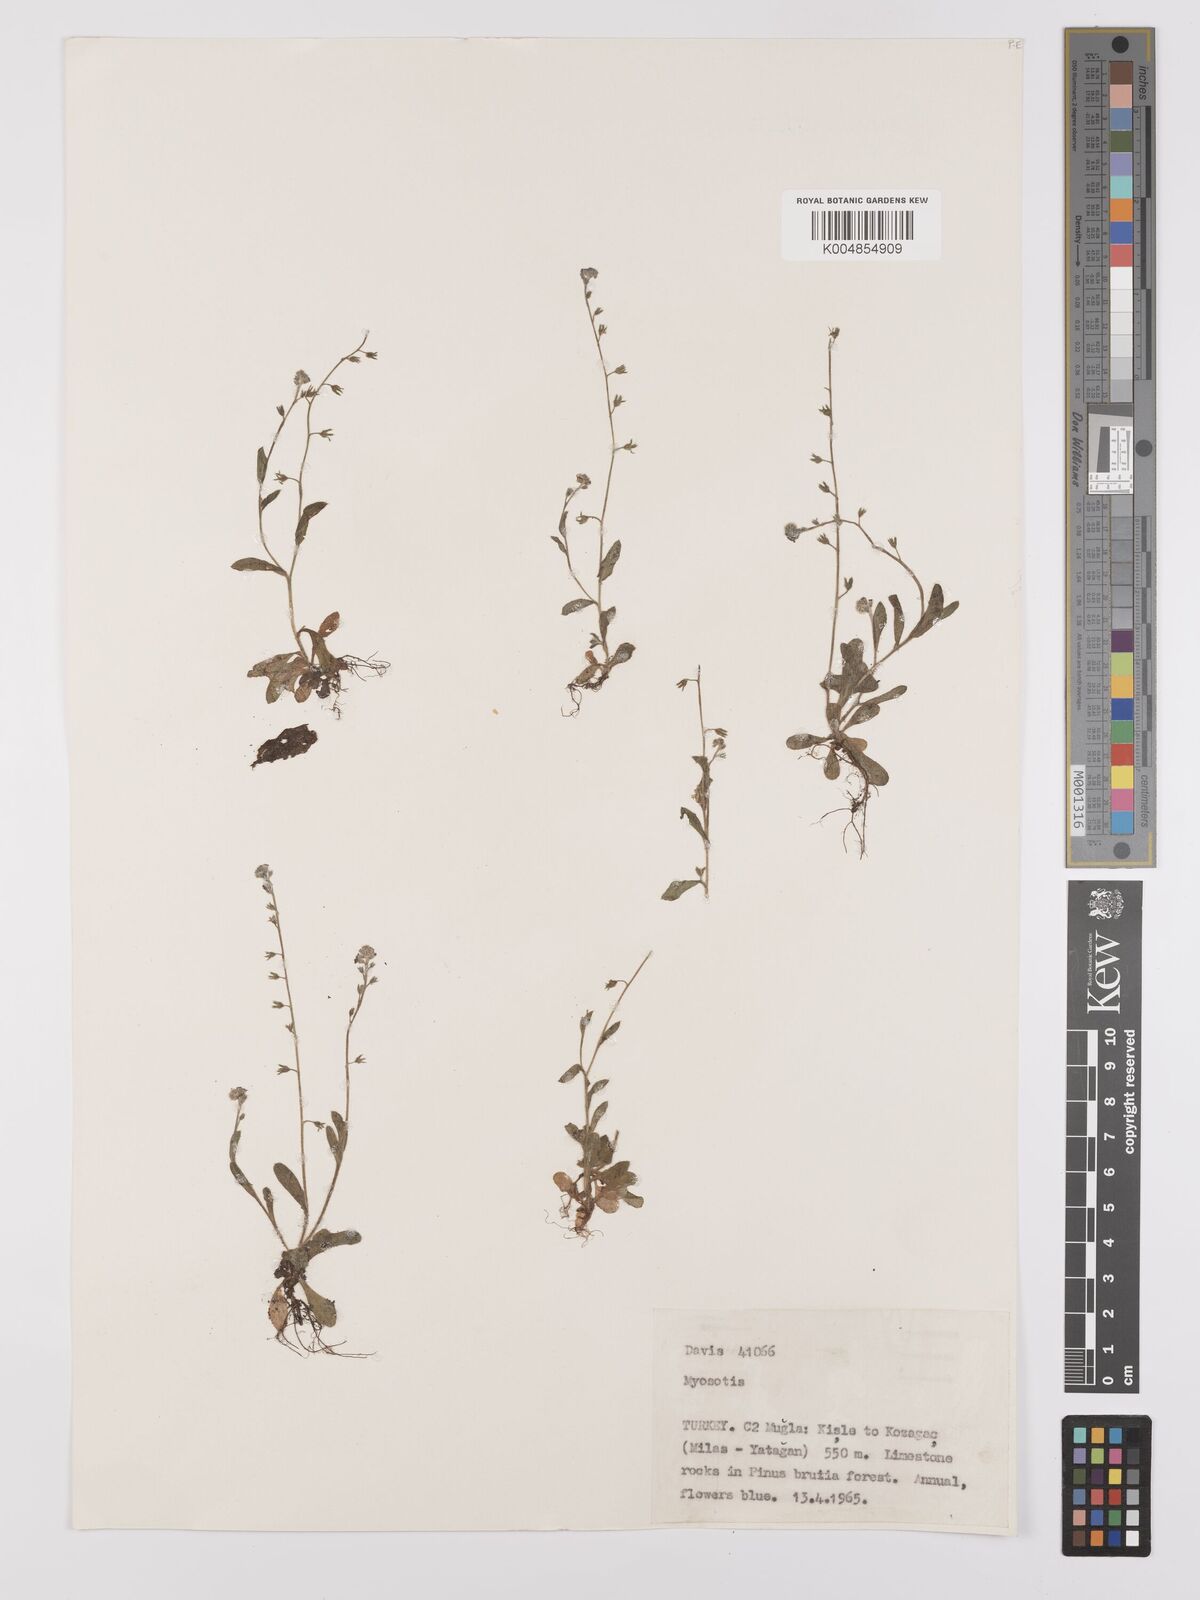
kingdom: Plantae
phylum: Tracheophyta
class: Magnoliopsida
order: Boraginales
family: Boraginaceae
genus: Myosotis
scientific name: Myosotis
